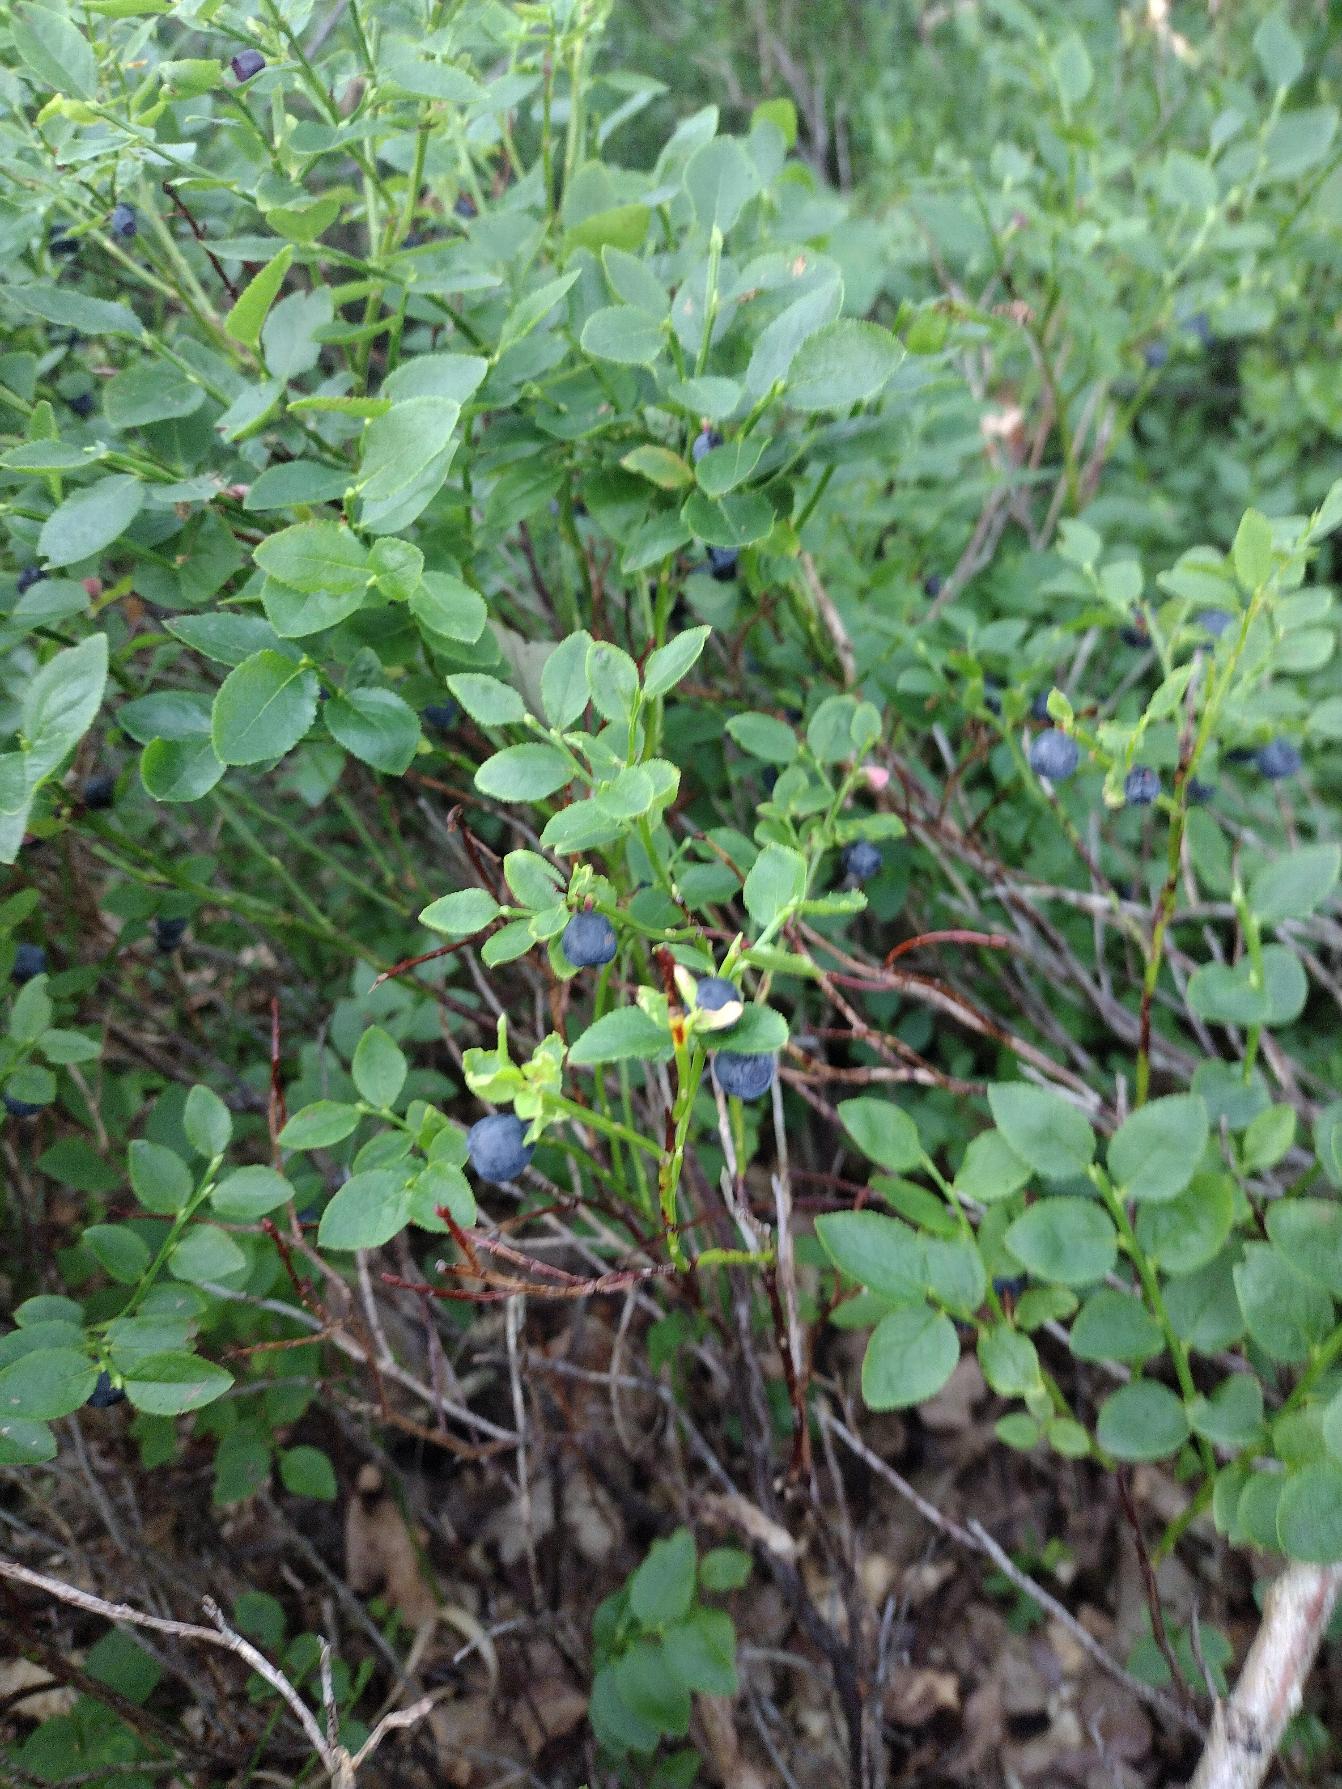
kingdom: Plantae
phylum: Tracheophyta
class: Magnoliopsida
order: Ericales
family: Ericaceae
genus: Vaccinium
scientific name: Vaccinium myrtillus
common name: Blåbær
